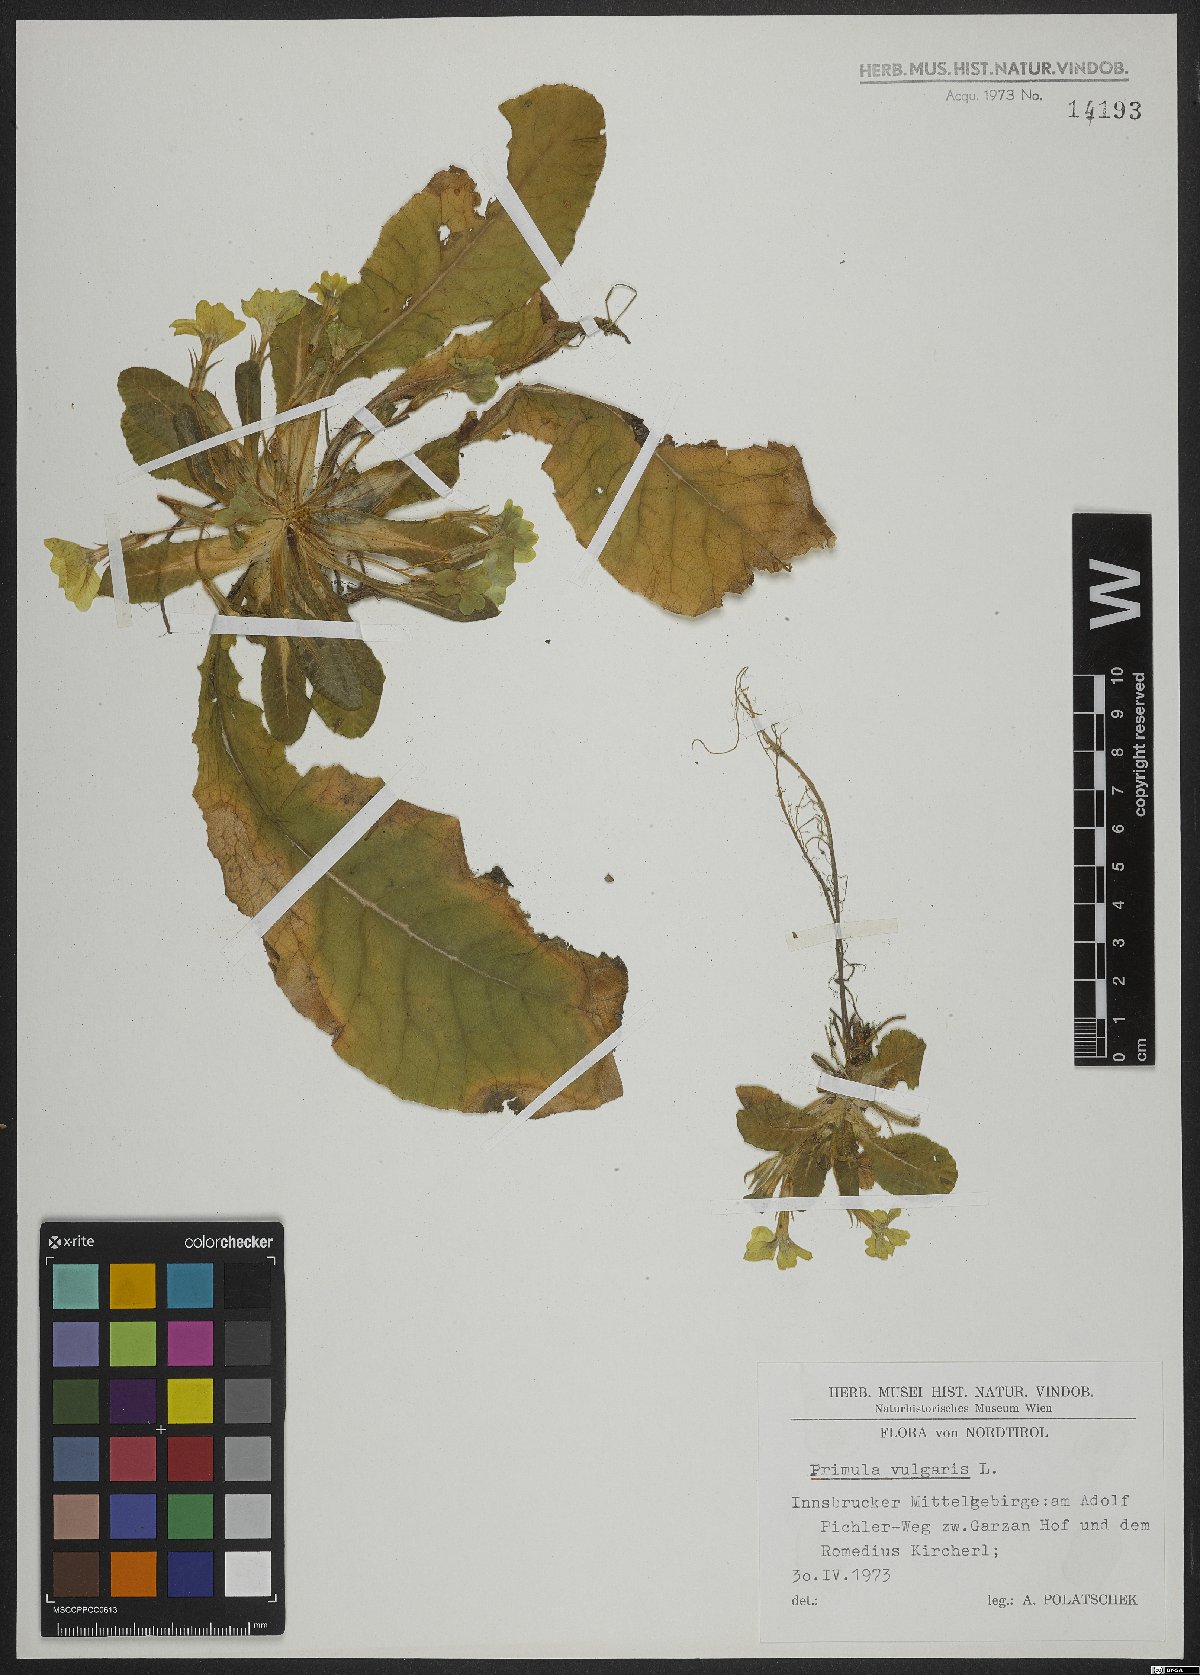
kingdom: Plantae
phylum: Tracheophyta
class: Magnoliopsida
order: Ericales
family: Primulaceae
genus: Primula
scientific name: Primula vulgaris
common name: Primrose
